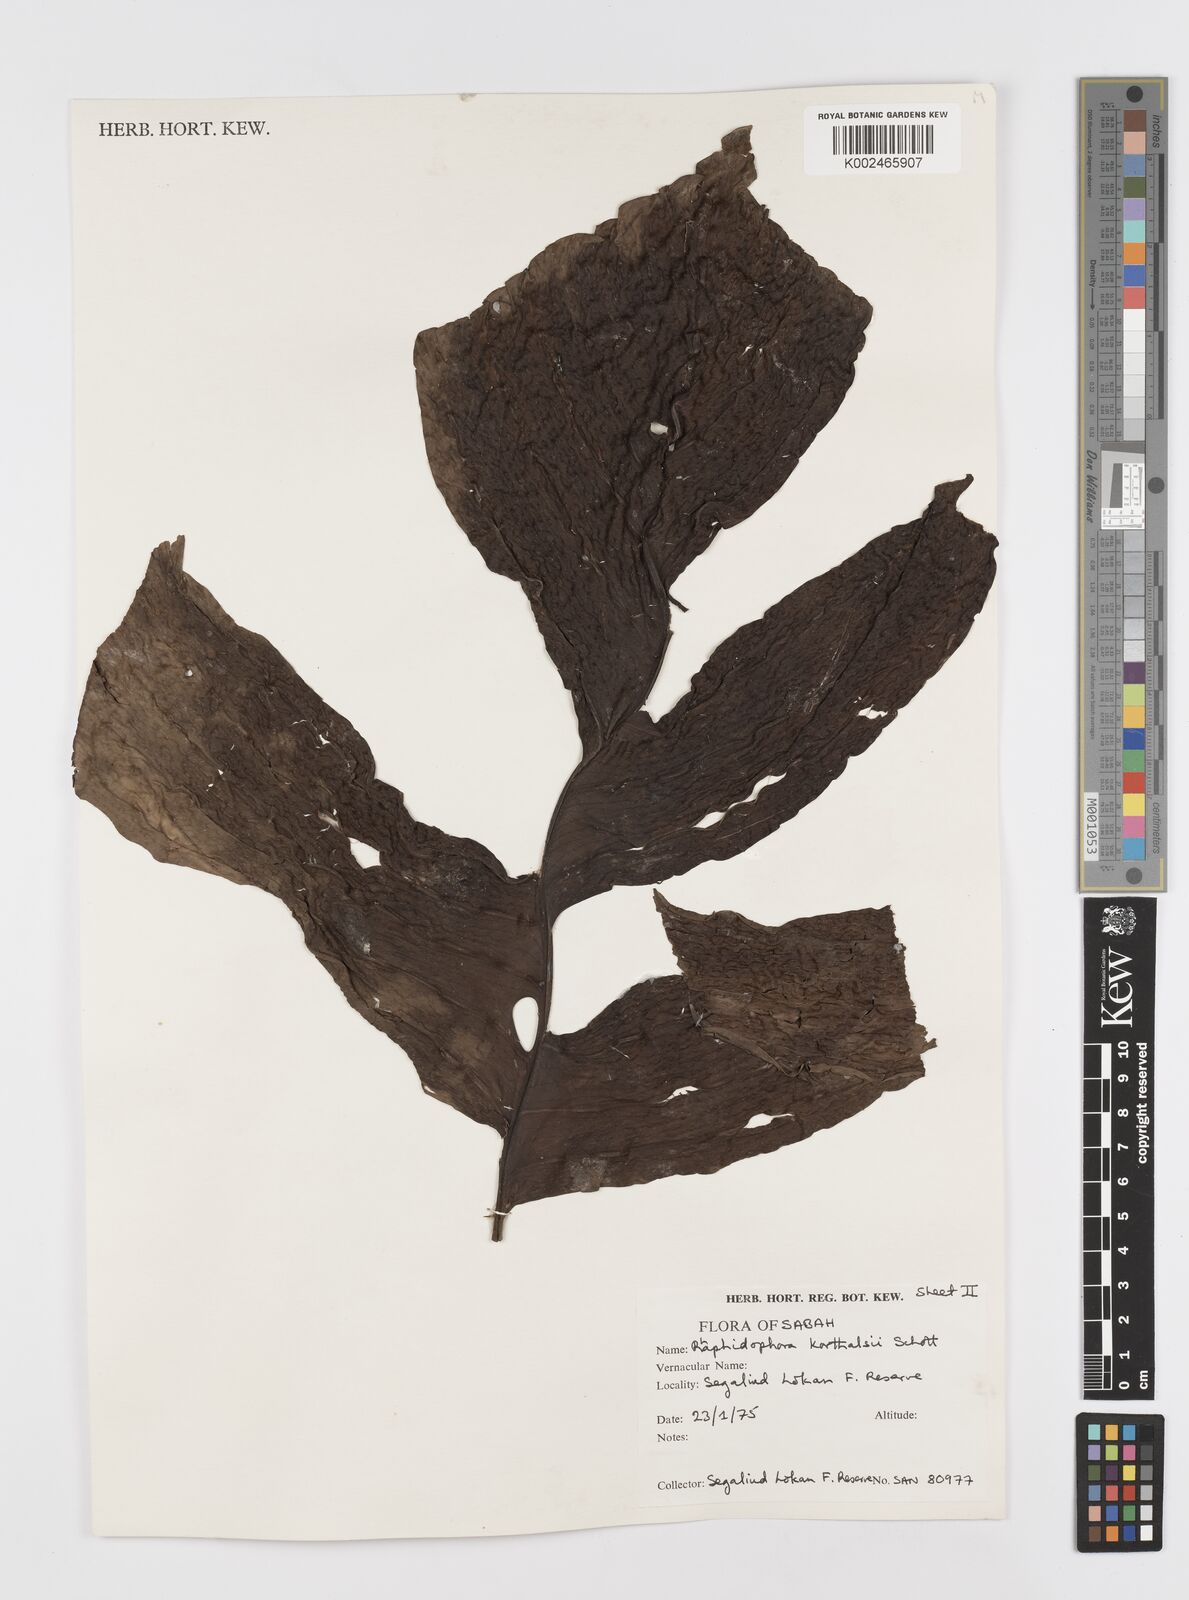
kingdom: Plantae
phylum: Tracheophyta
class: Liliopsida
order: Alismatales
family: Araceae
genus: Rhaphidophora
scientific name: Rhaphidophora korthalsii
